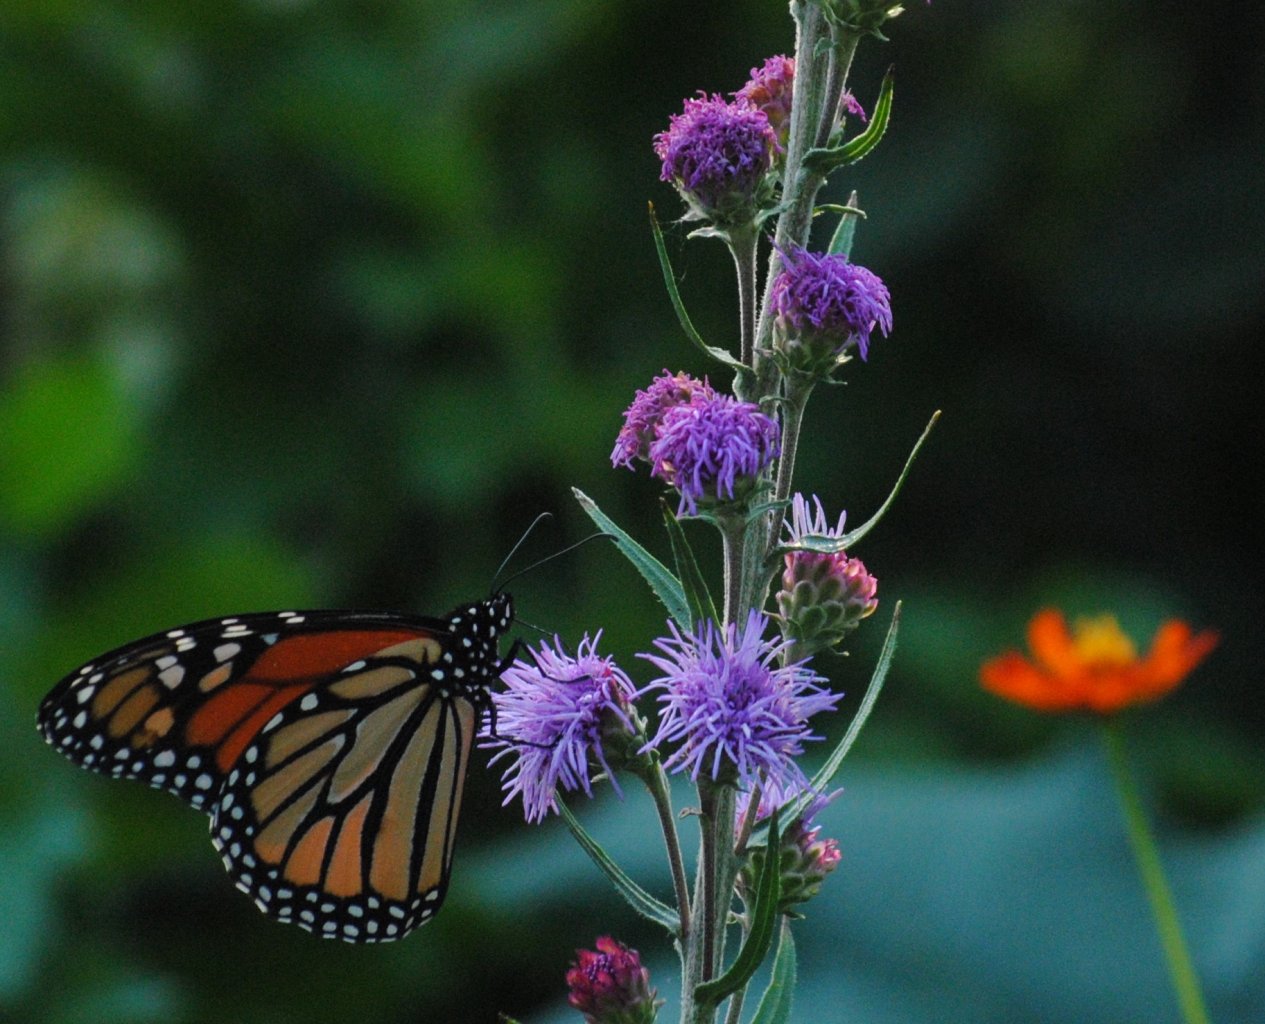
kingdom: Animalia
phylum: Arthropoda
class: Insecta
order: Lepidoptera
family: Nymphalidae
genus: Danaus
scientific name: Danaus plexippus
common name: Monarch
